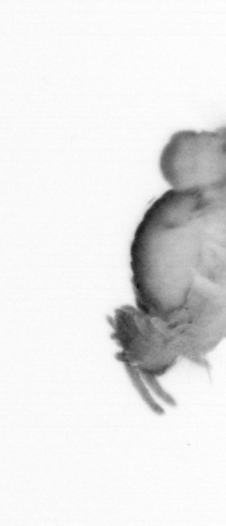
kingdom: Animalia
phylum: Annelida
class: Polychaeta
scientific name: Polychaeta
